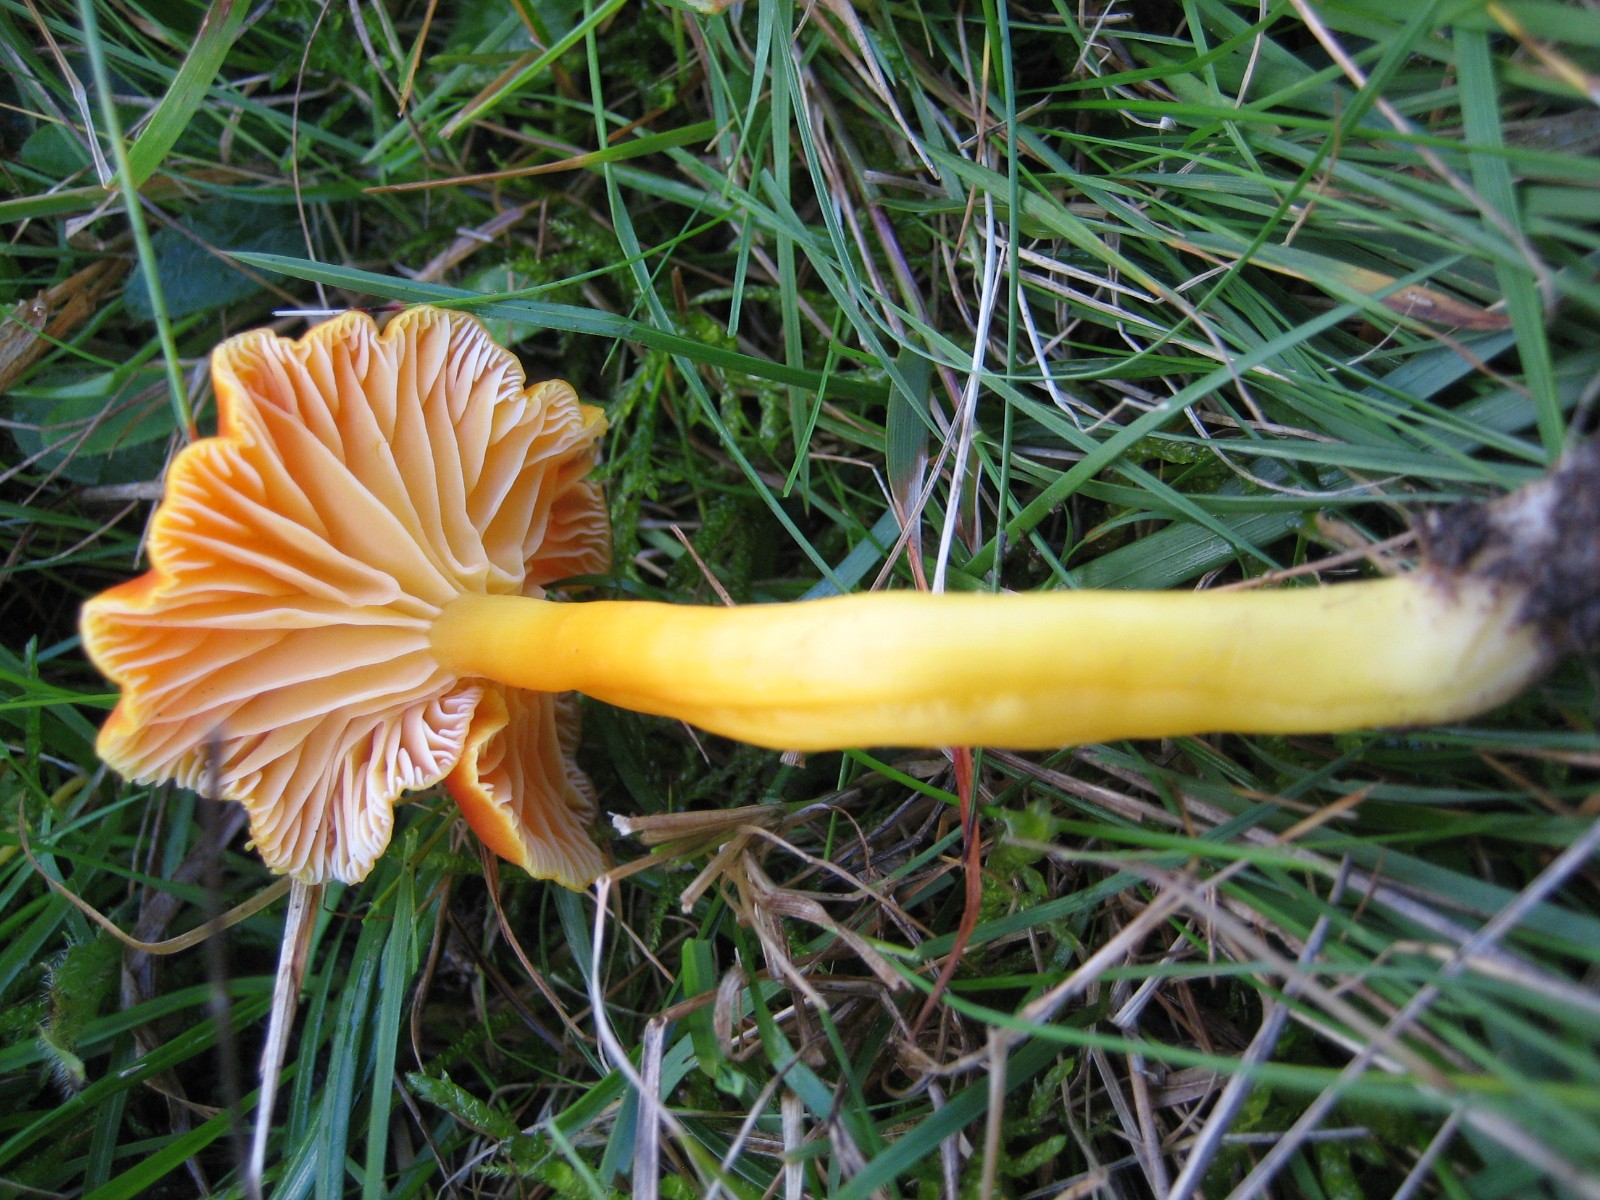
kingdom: Fungi
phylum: Basidiomycota
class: Agaricomycetes
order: Agaricales
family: Hygrophoraceae
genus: Hygrocybe
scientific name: Hygrocybe reidii
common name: honning-vokshat
